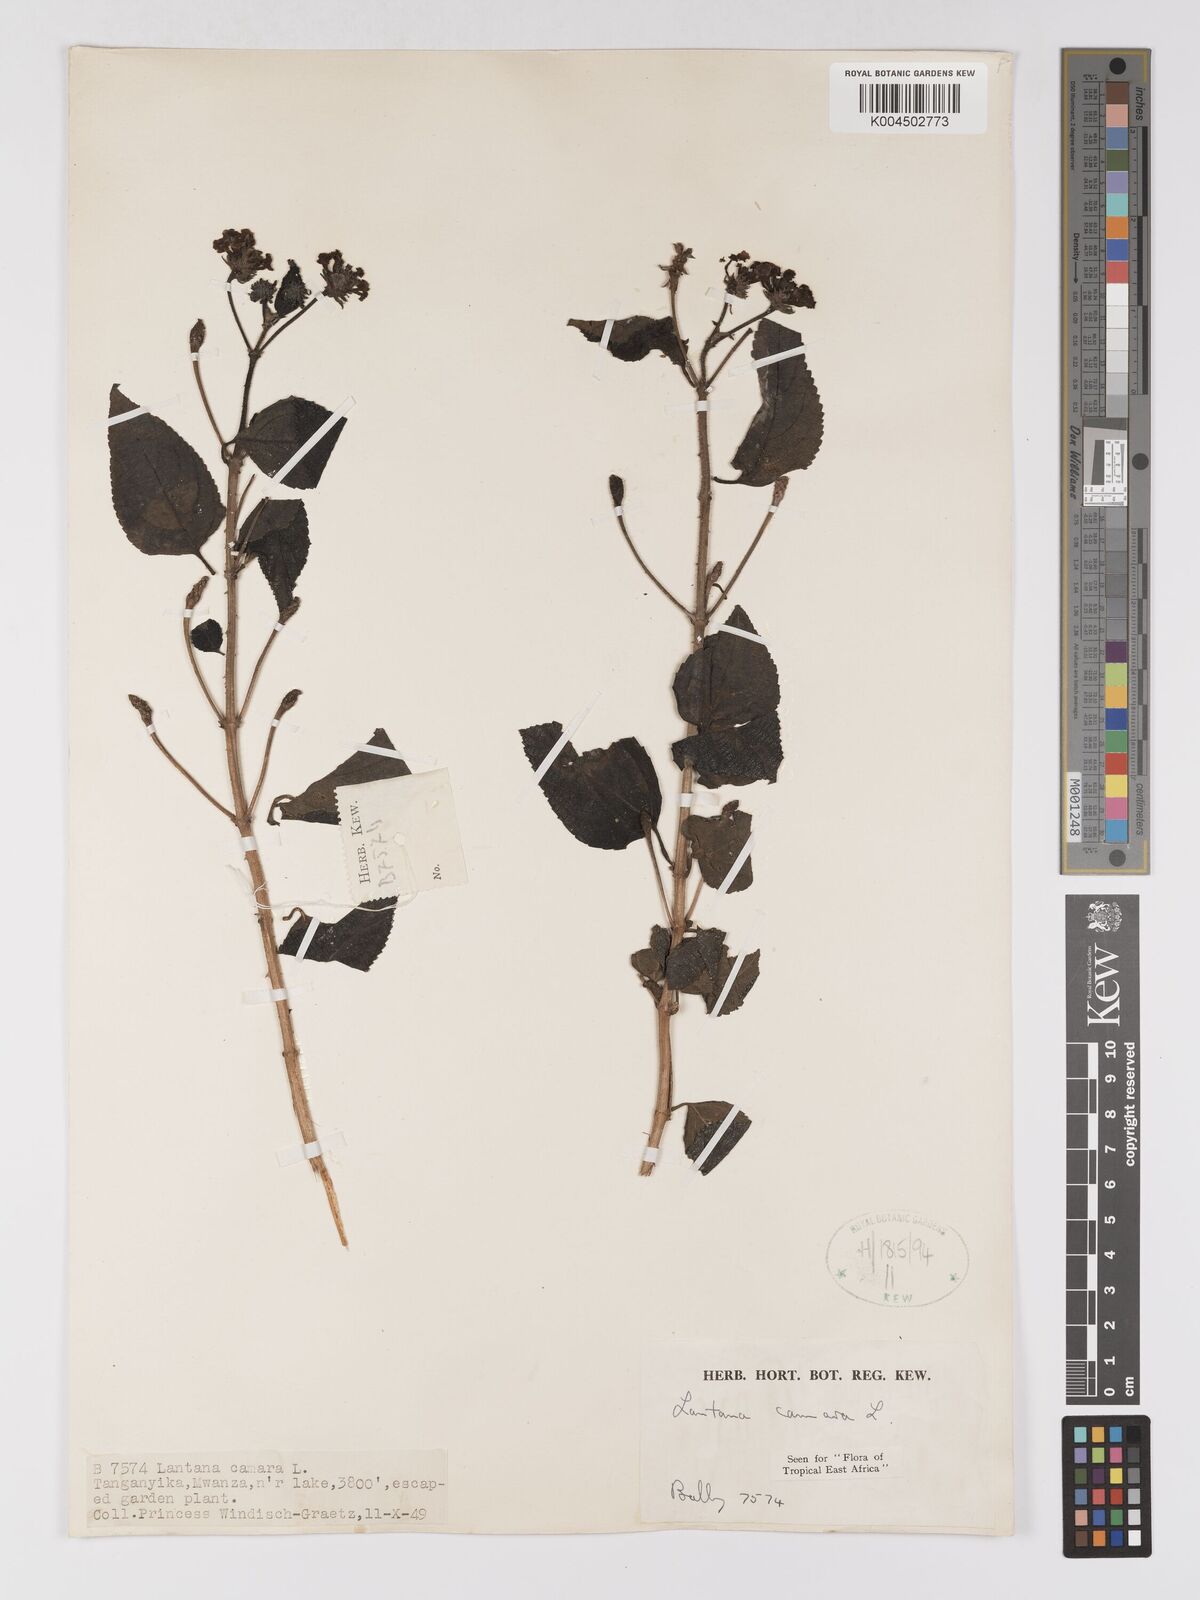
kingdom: Plantae
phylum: Tracheophyta
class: Magnoliopsida
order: Lamiales
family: Verbenaceae
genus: Lantana
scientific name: Lantana camara
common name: Lantana
